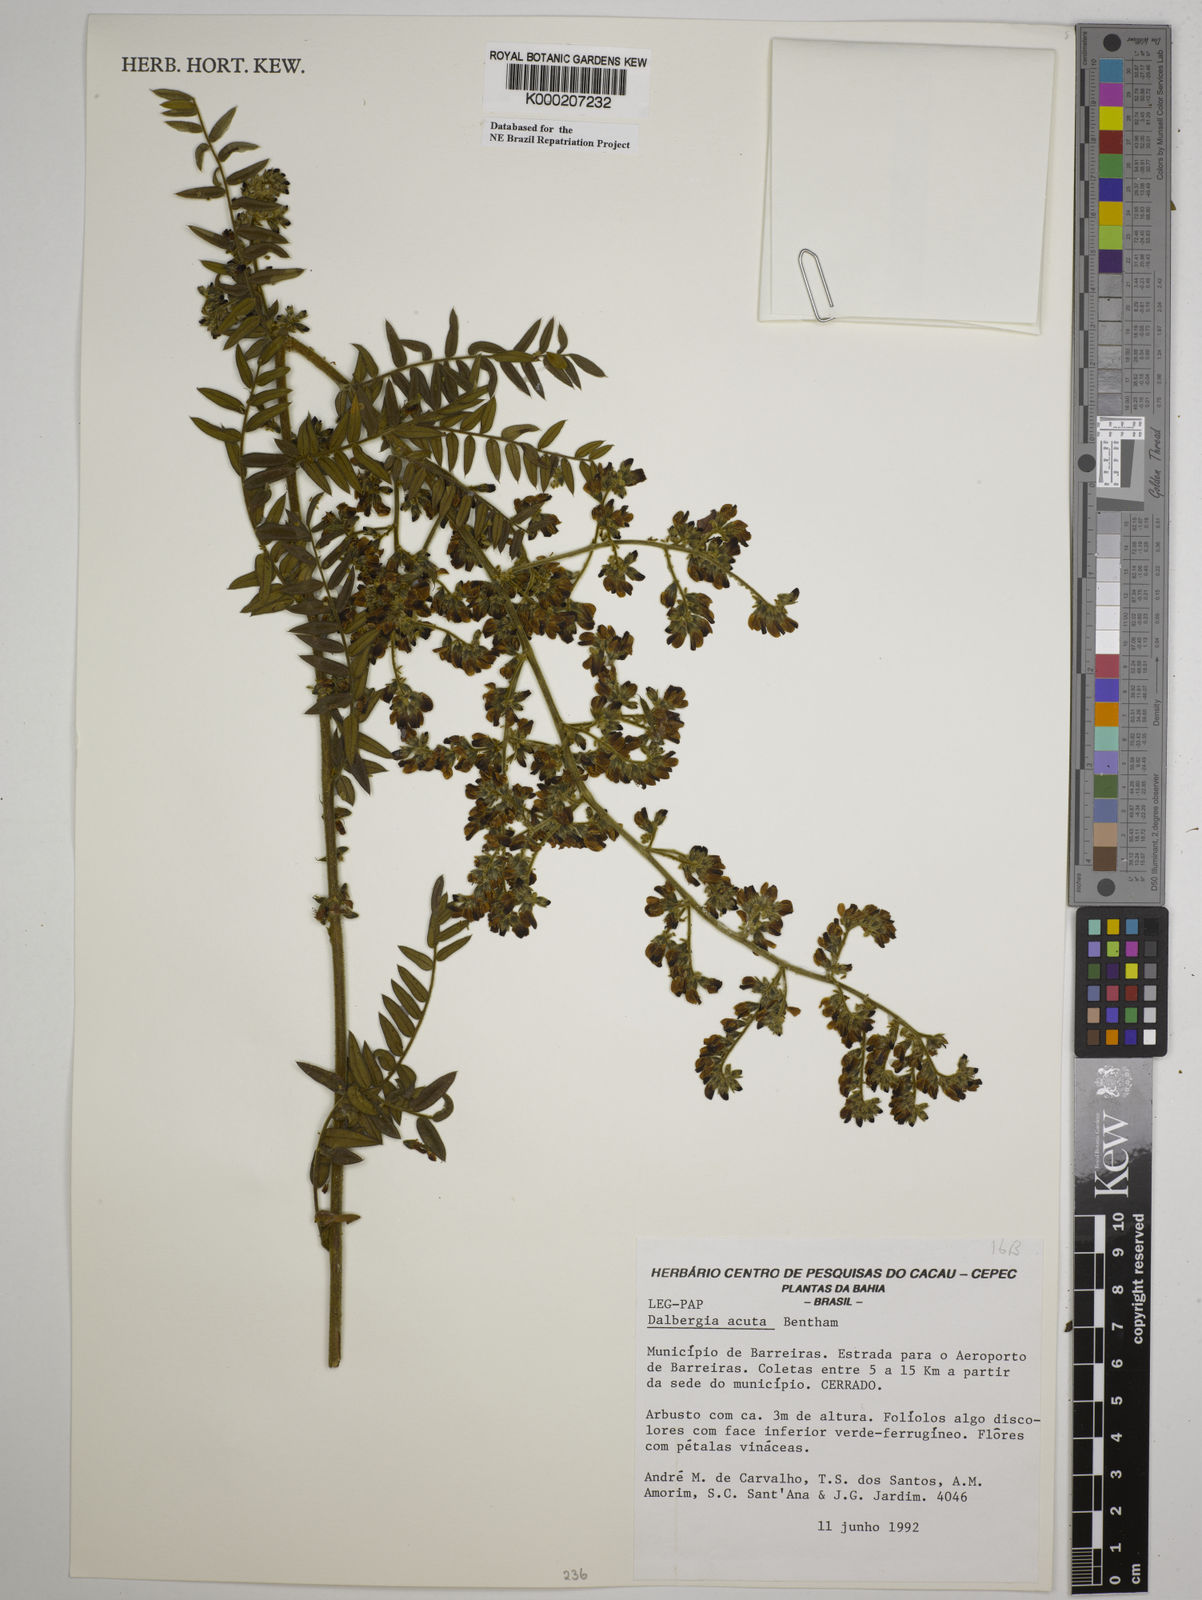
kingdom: Plantae
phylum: Tracheophyta
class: Magnoliopsida
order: Fabales
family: Fabaceae
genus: Dalbergia
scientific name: Dalbergia acuta
